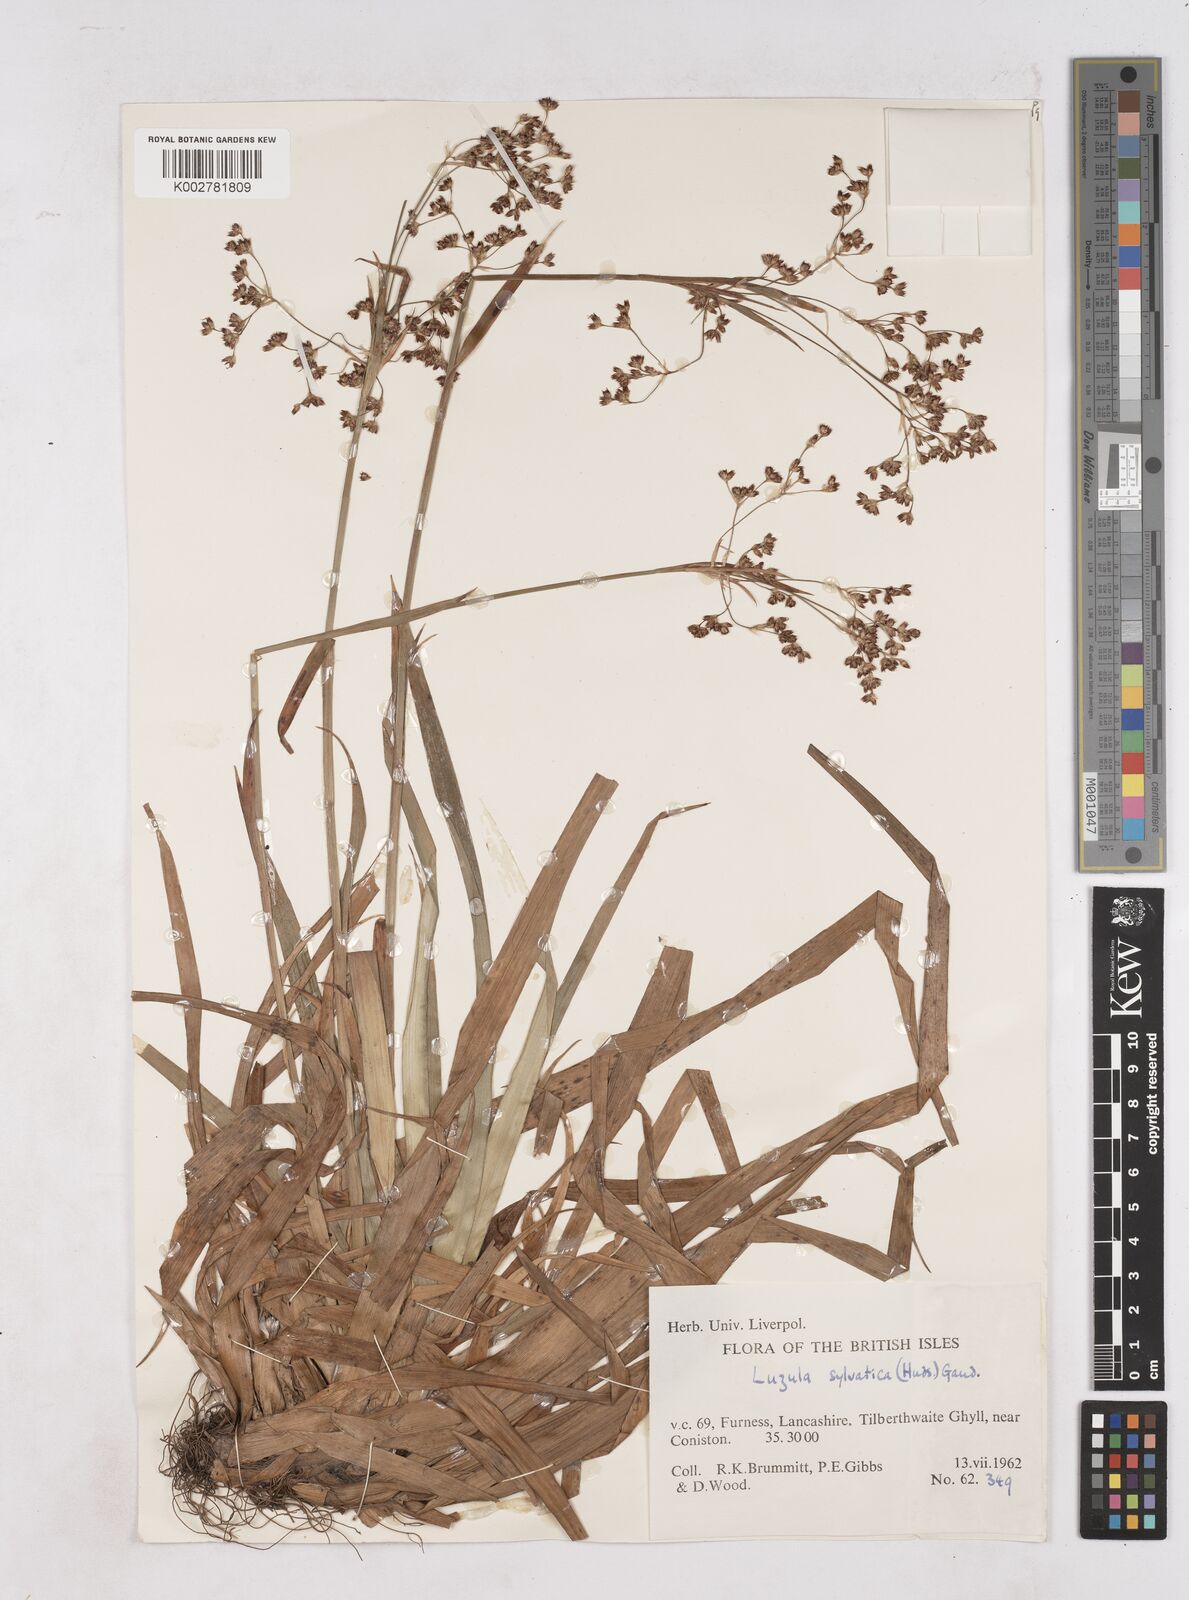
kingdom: Plantae
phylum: Tracheophyta
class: Liliopsida
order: Poales
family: Juncaceae
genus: Luzula
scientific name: Luzula sylvatica
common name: Great wood-rush
